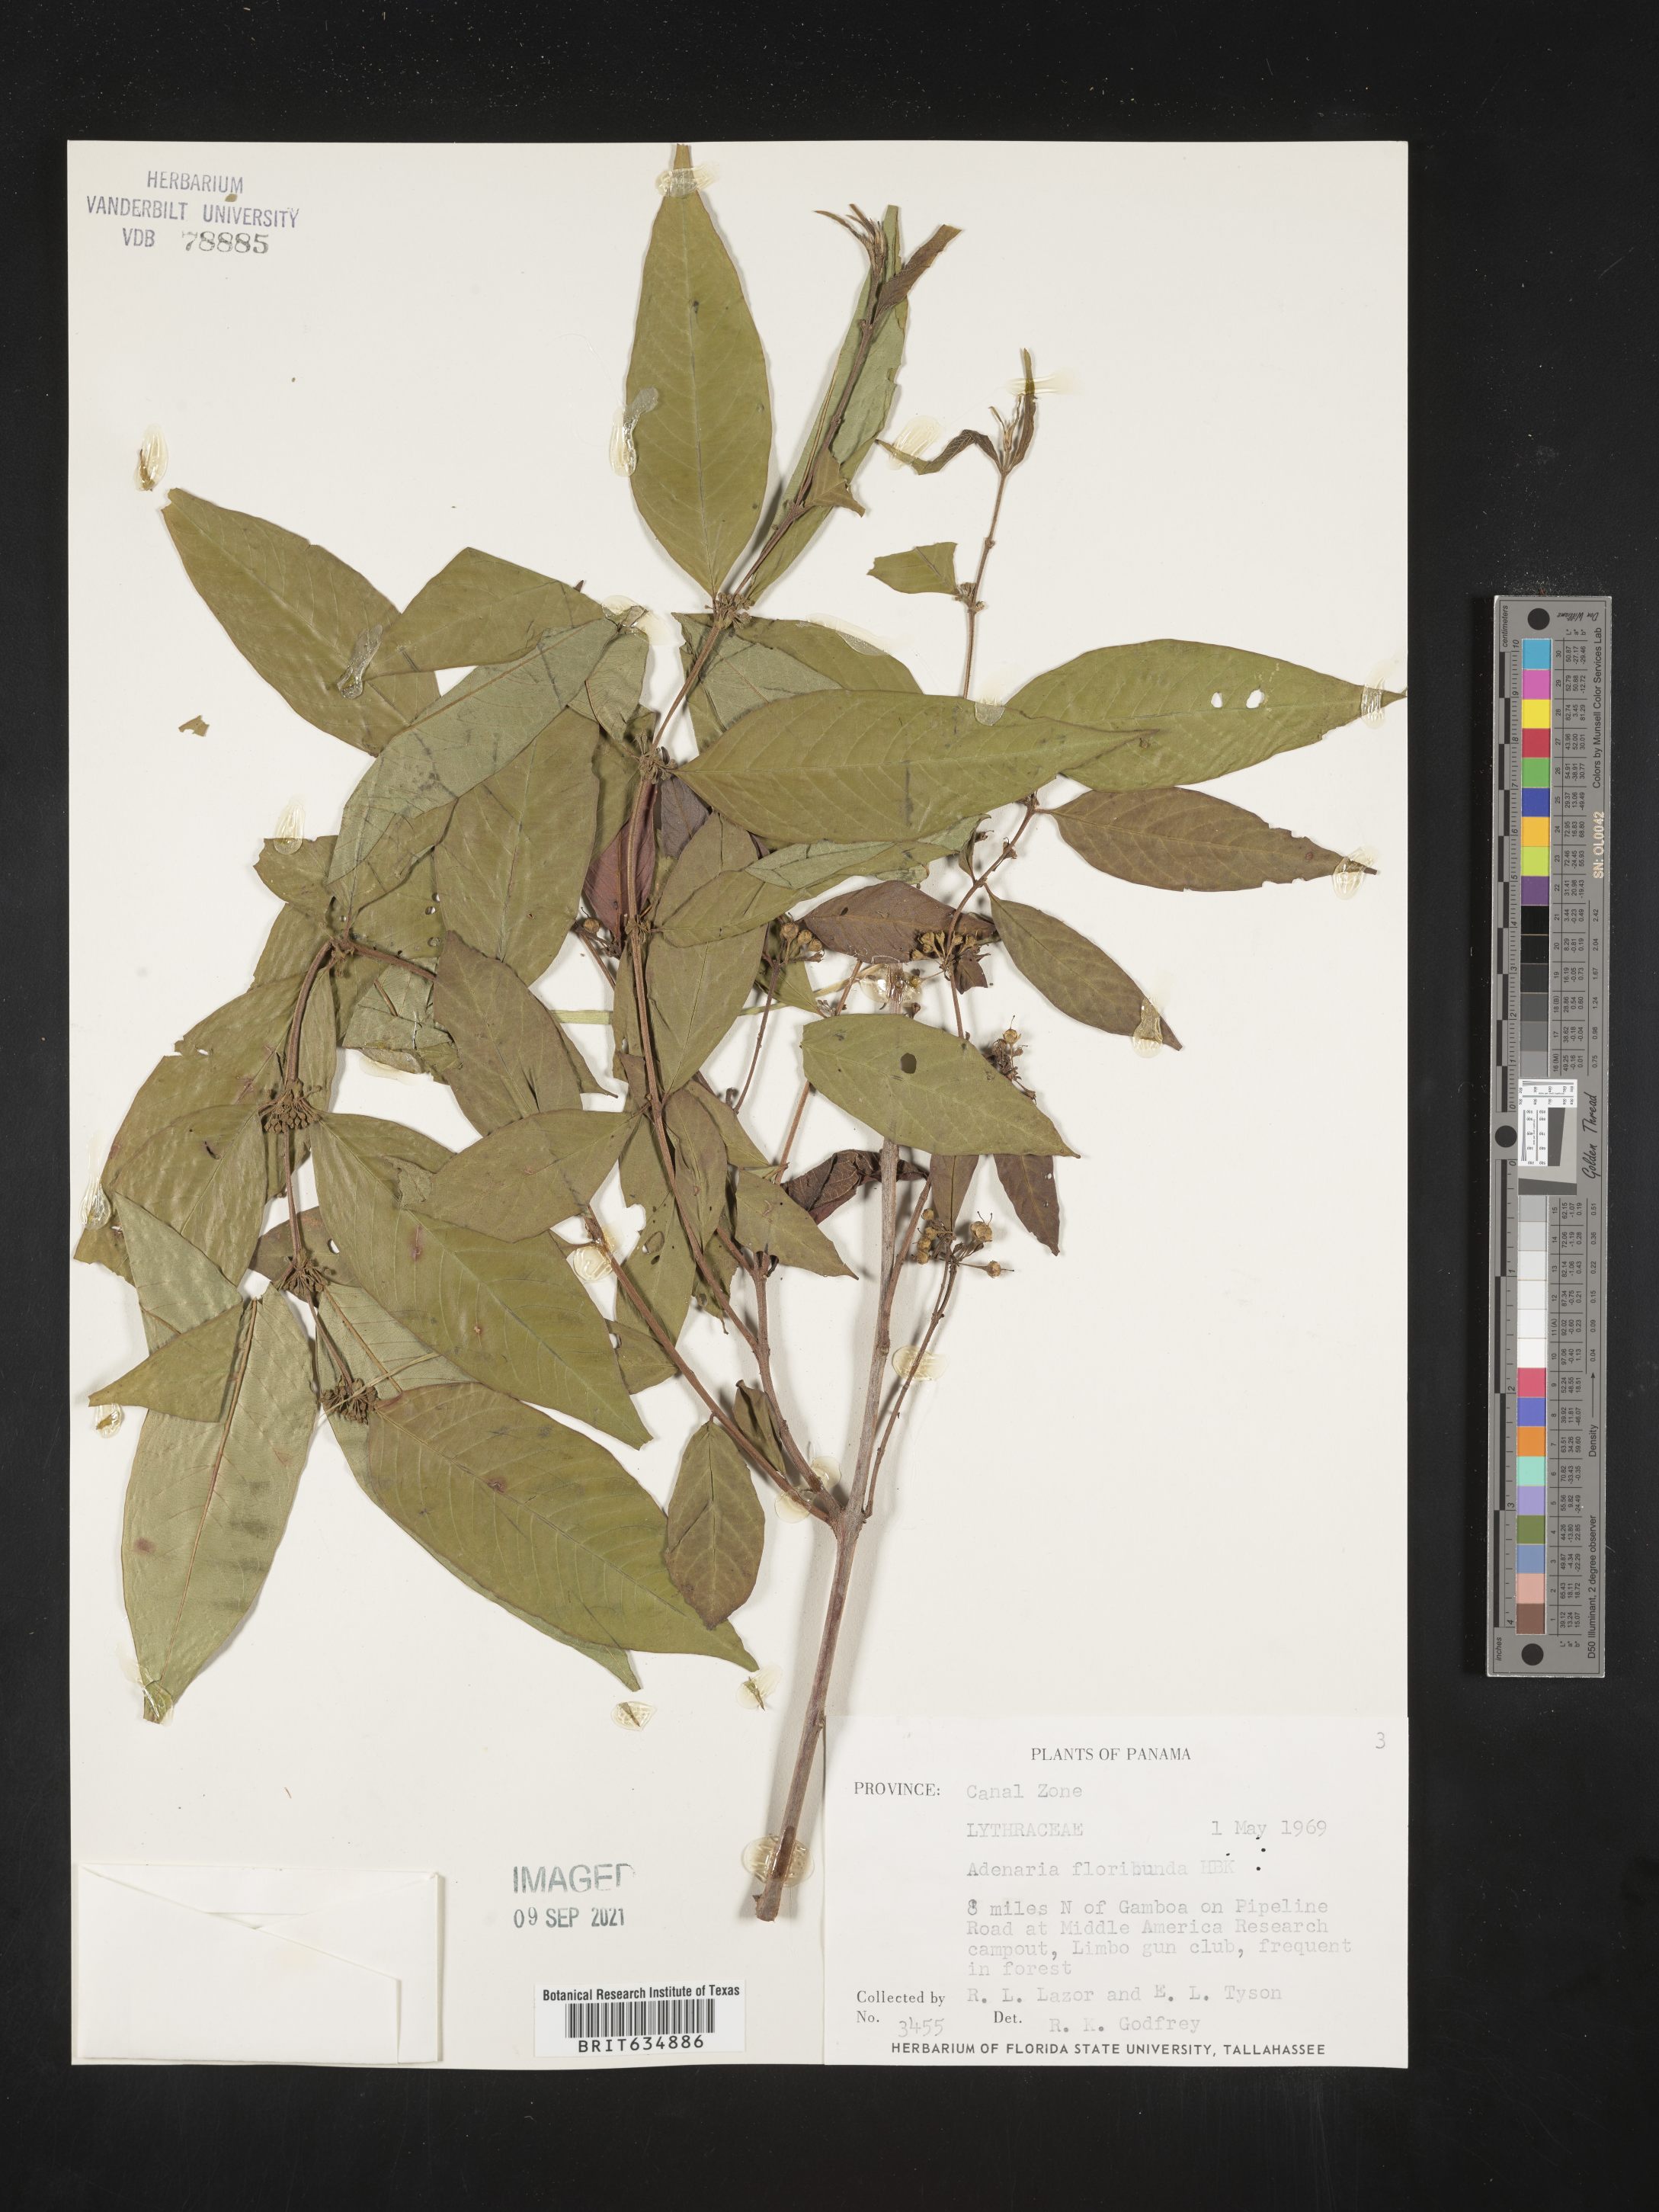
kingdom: Plantae
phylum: Tracheophyta
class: Magnoliopsida
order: Myrtales
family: Lythraceae
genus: Adenaria
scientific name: Adenaria
